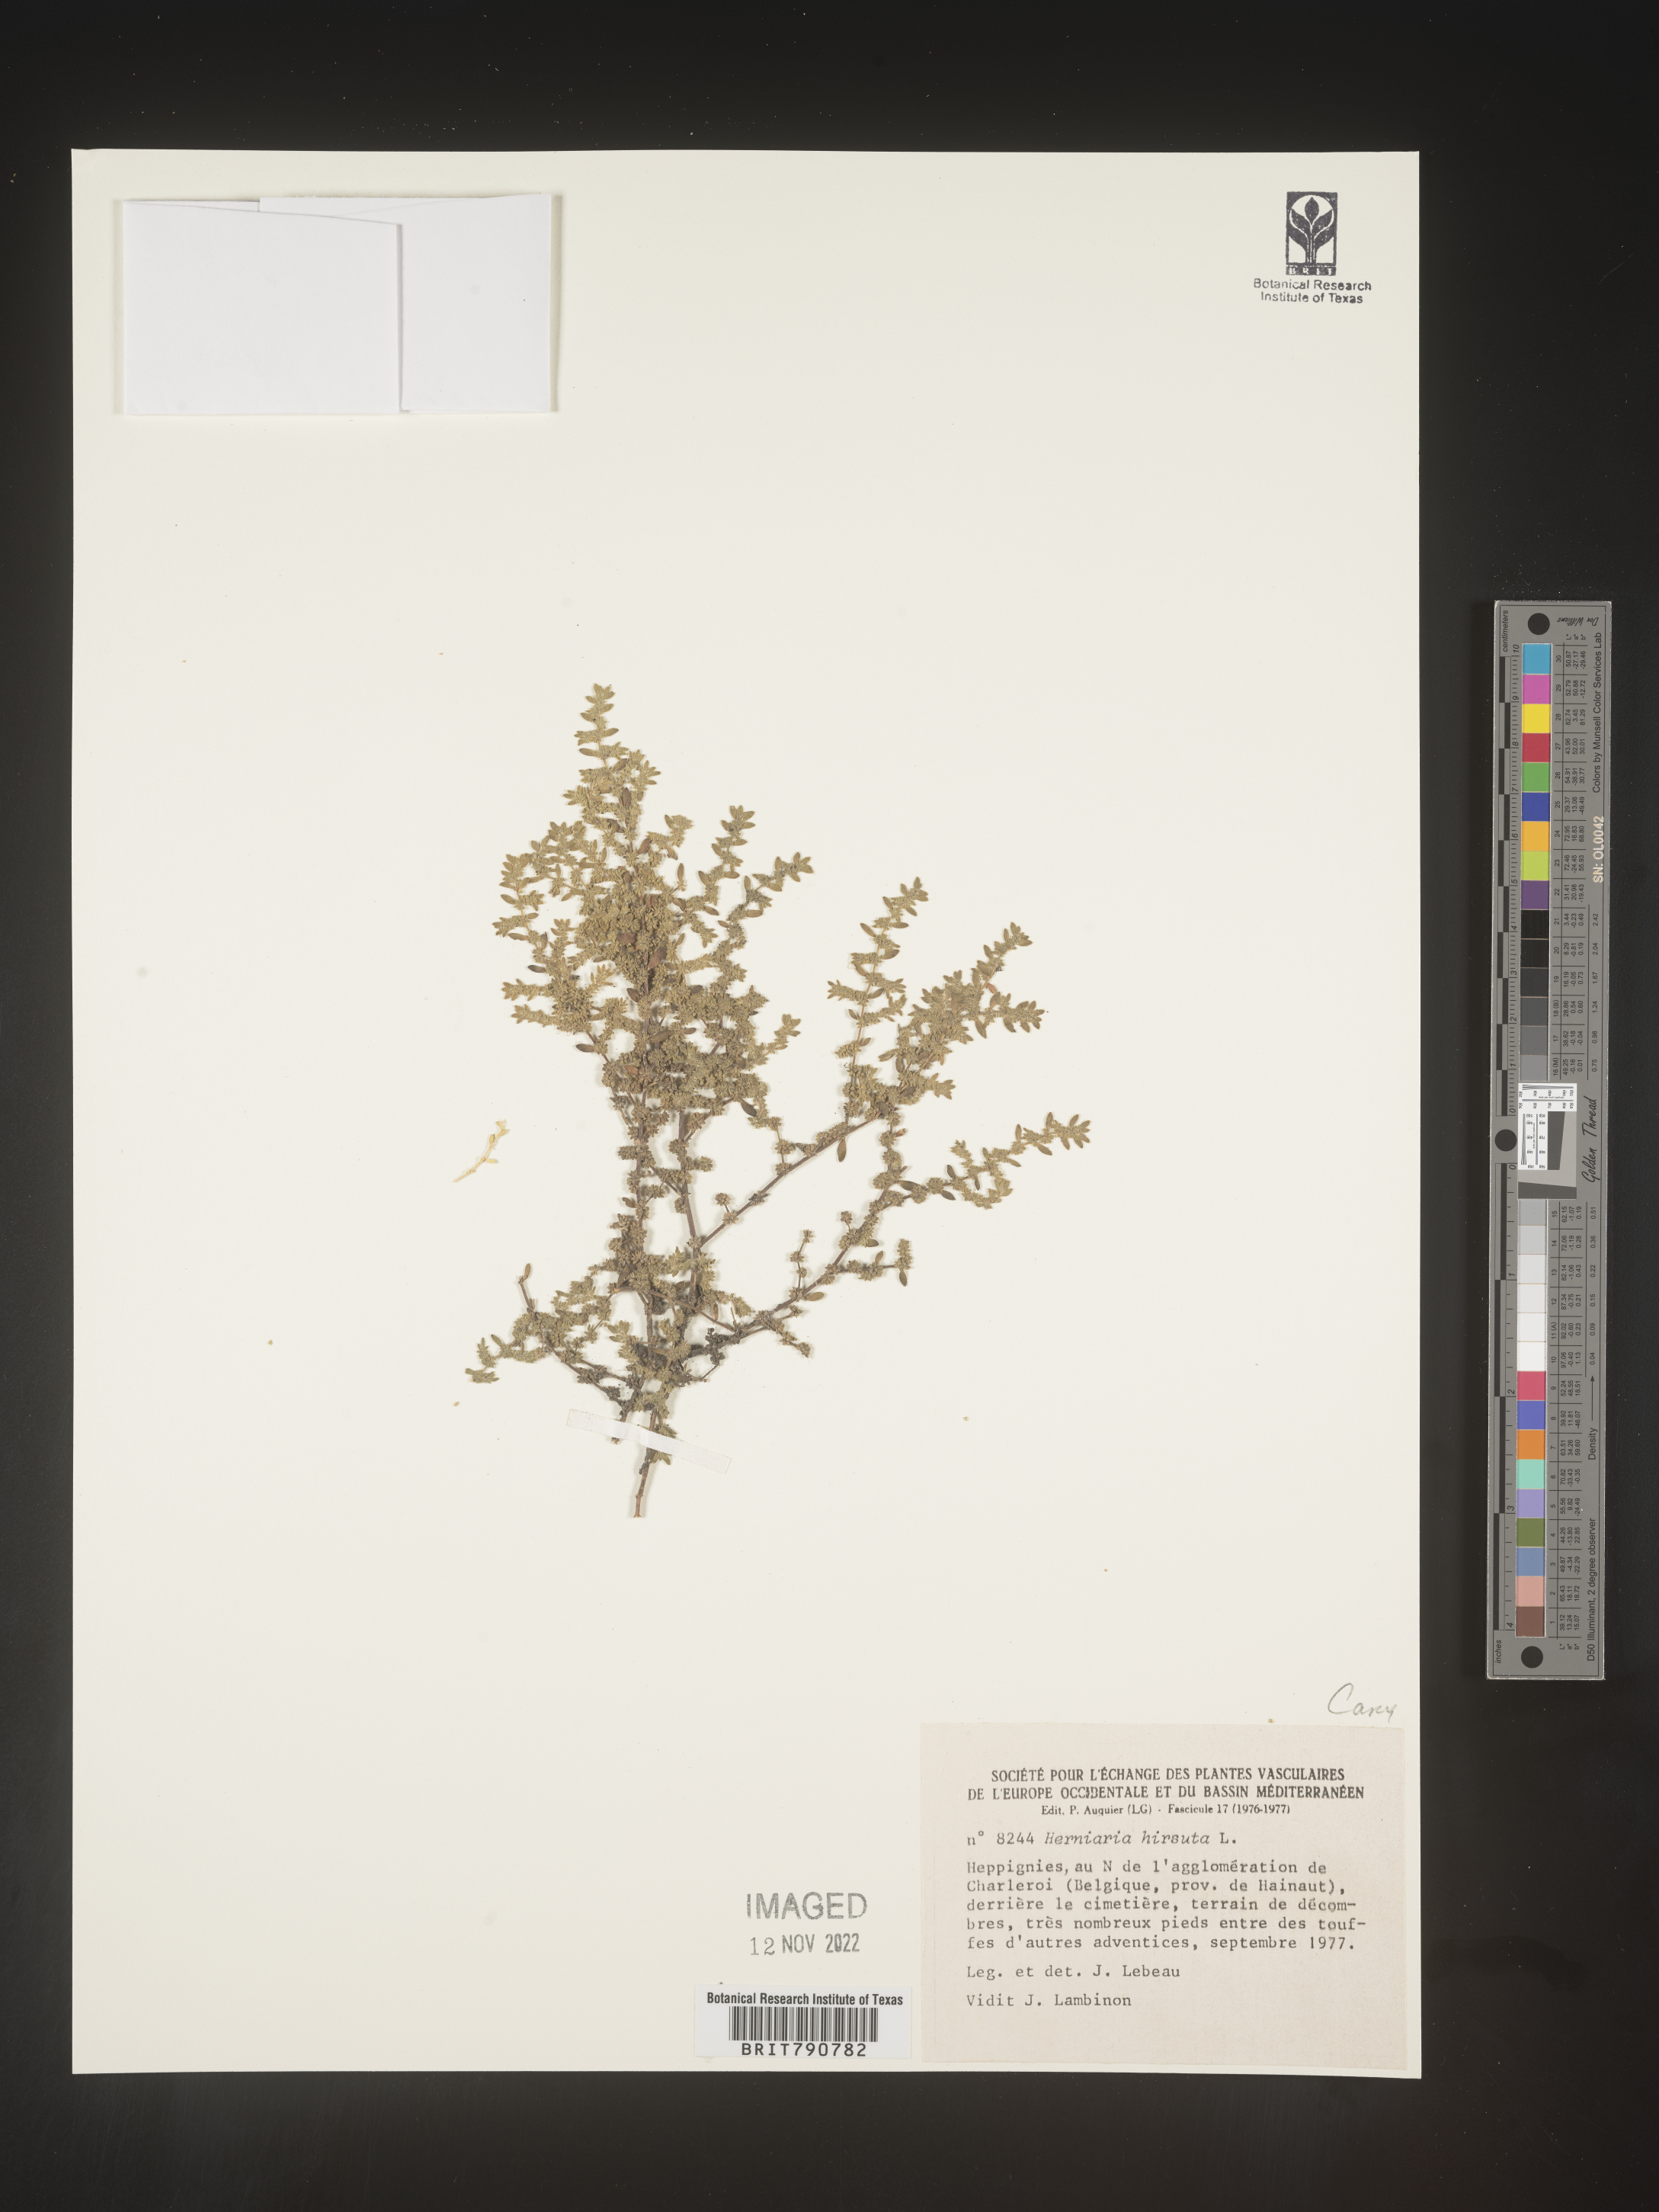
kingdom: Plantae
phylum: Tracheophyta
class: Magnoliopsida
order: Caryophyllales
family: Caryophyllaceae
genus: Herniaria
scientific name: Herniaria
